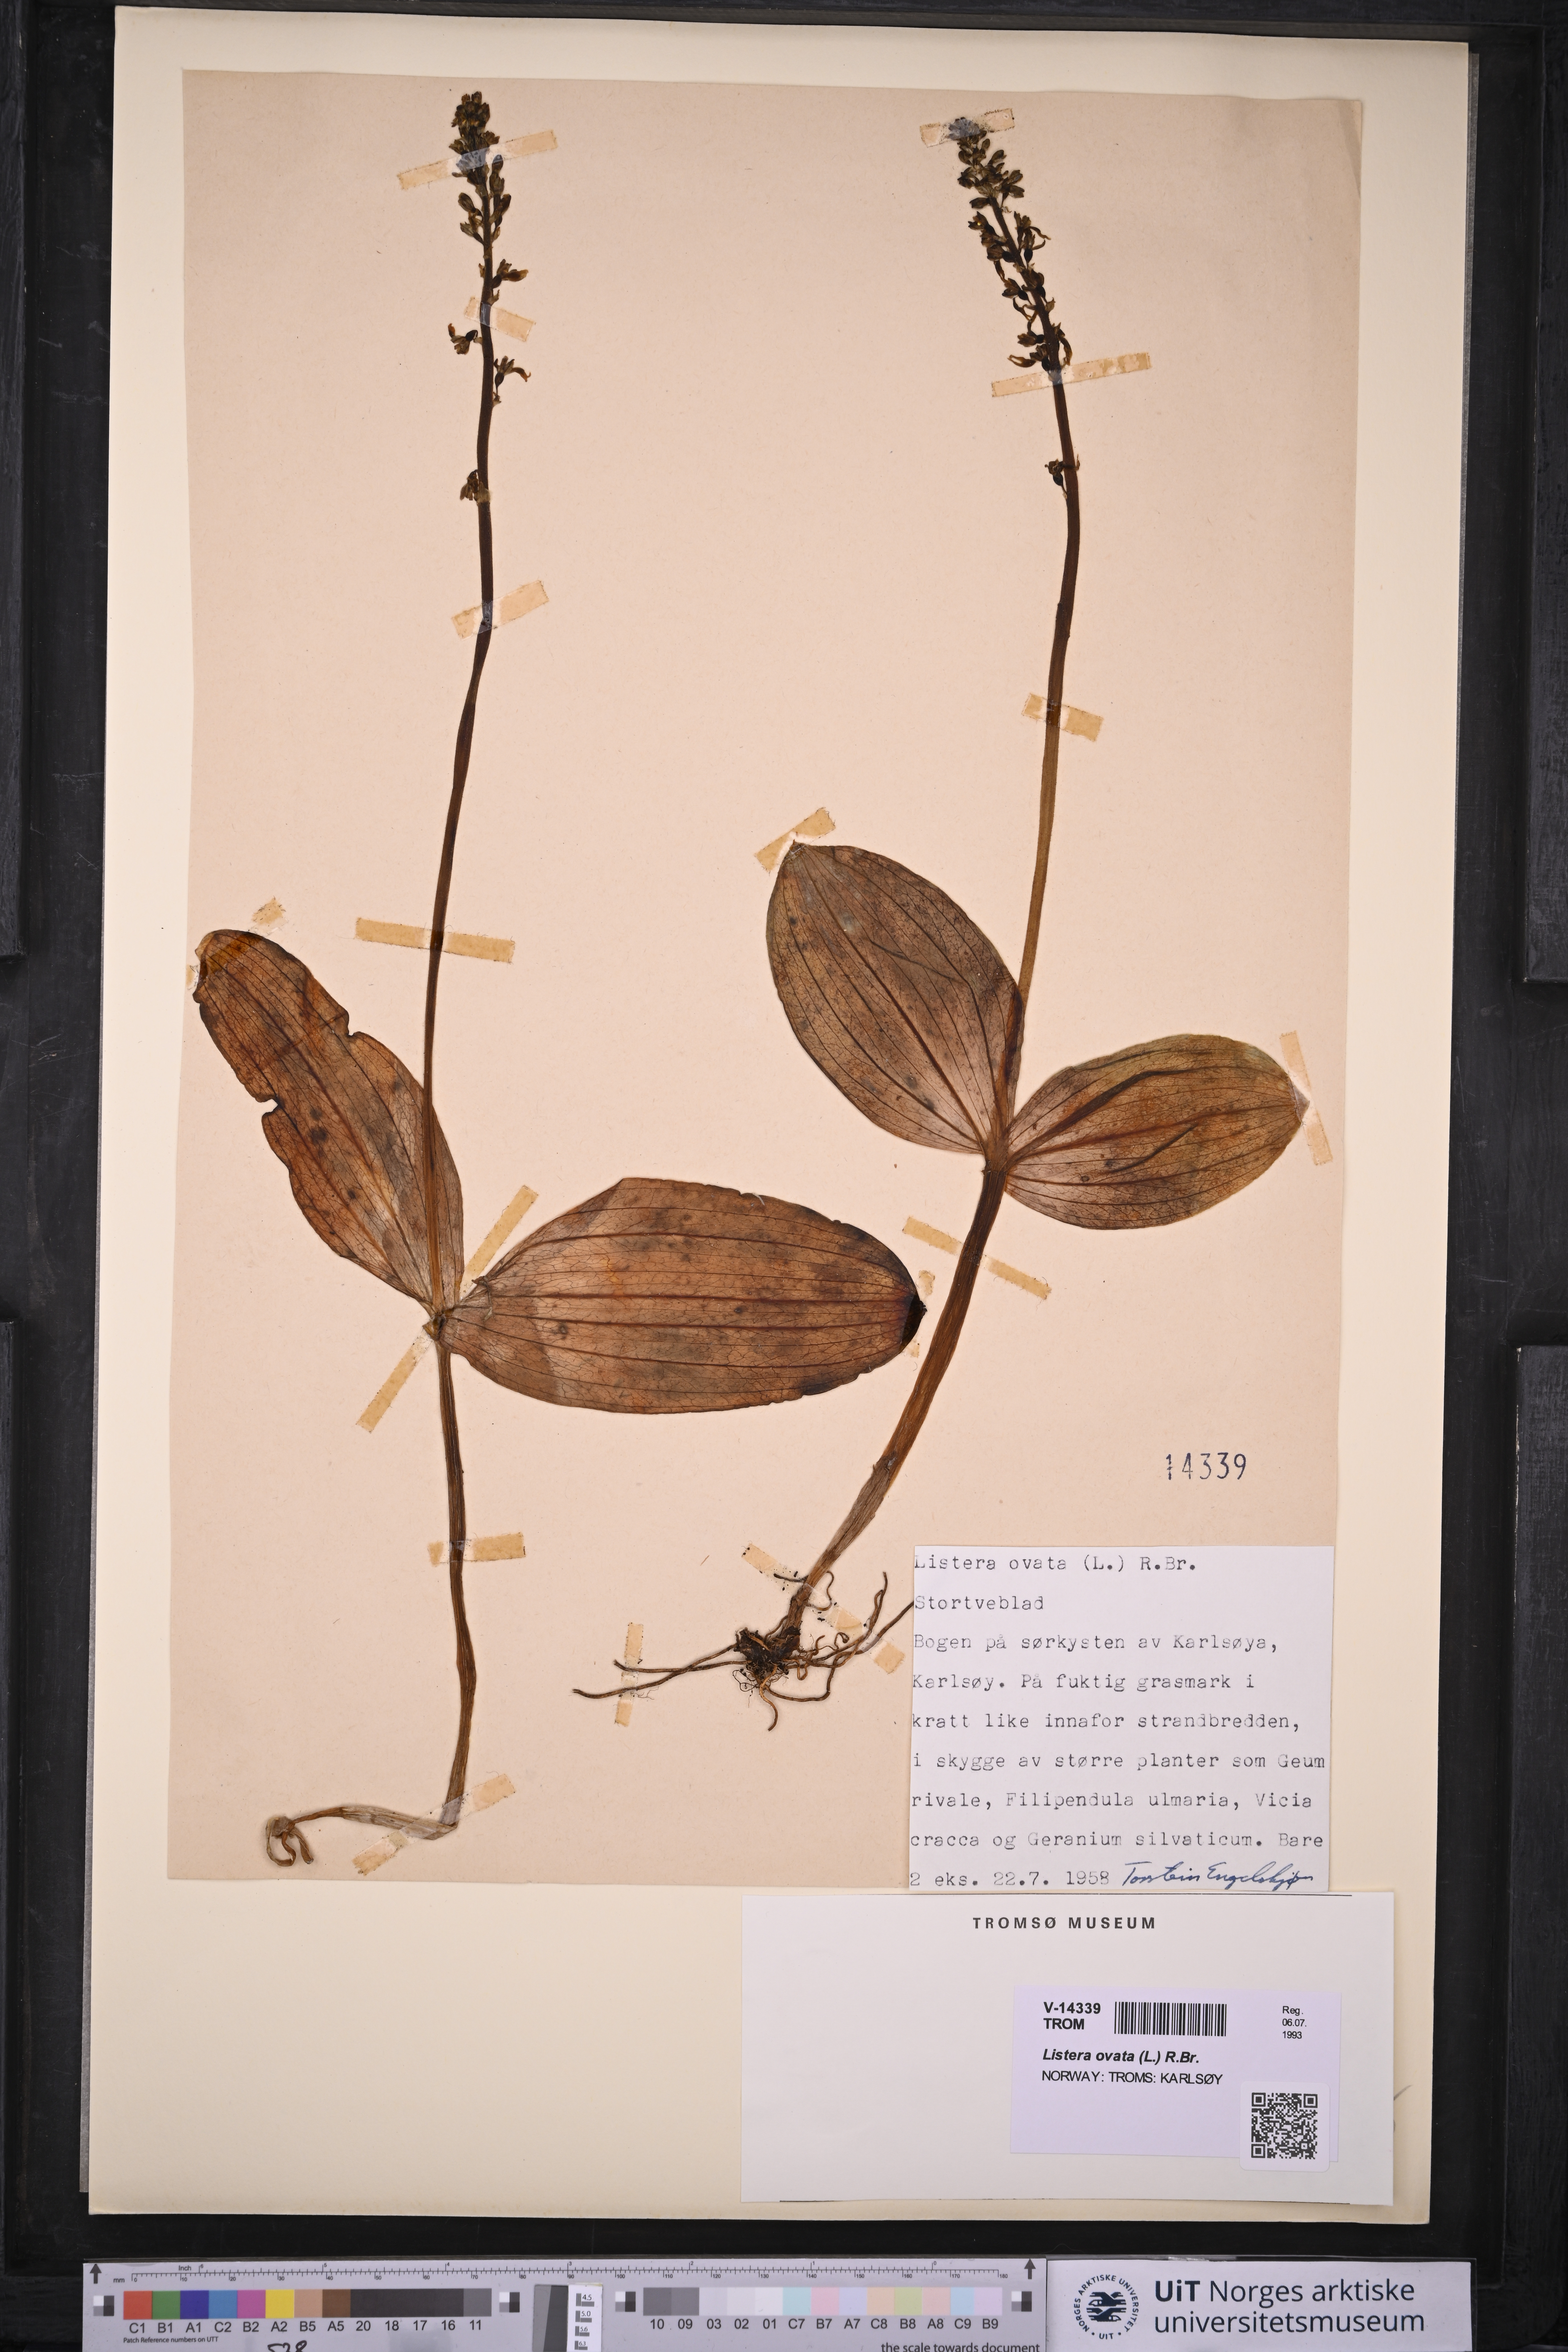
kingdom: Plantae
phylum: Tracheophyta
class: Liliopsida
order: Asparagales
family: Orchidaceae
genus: Neottia
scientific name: Neottia ovata
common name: Common twayblade
